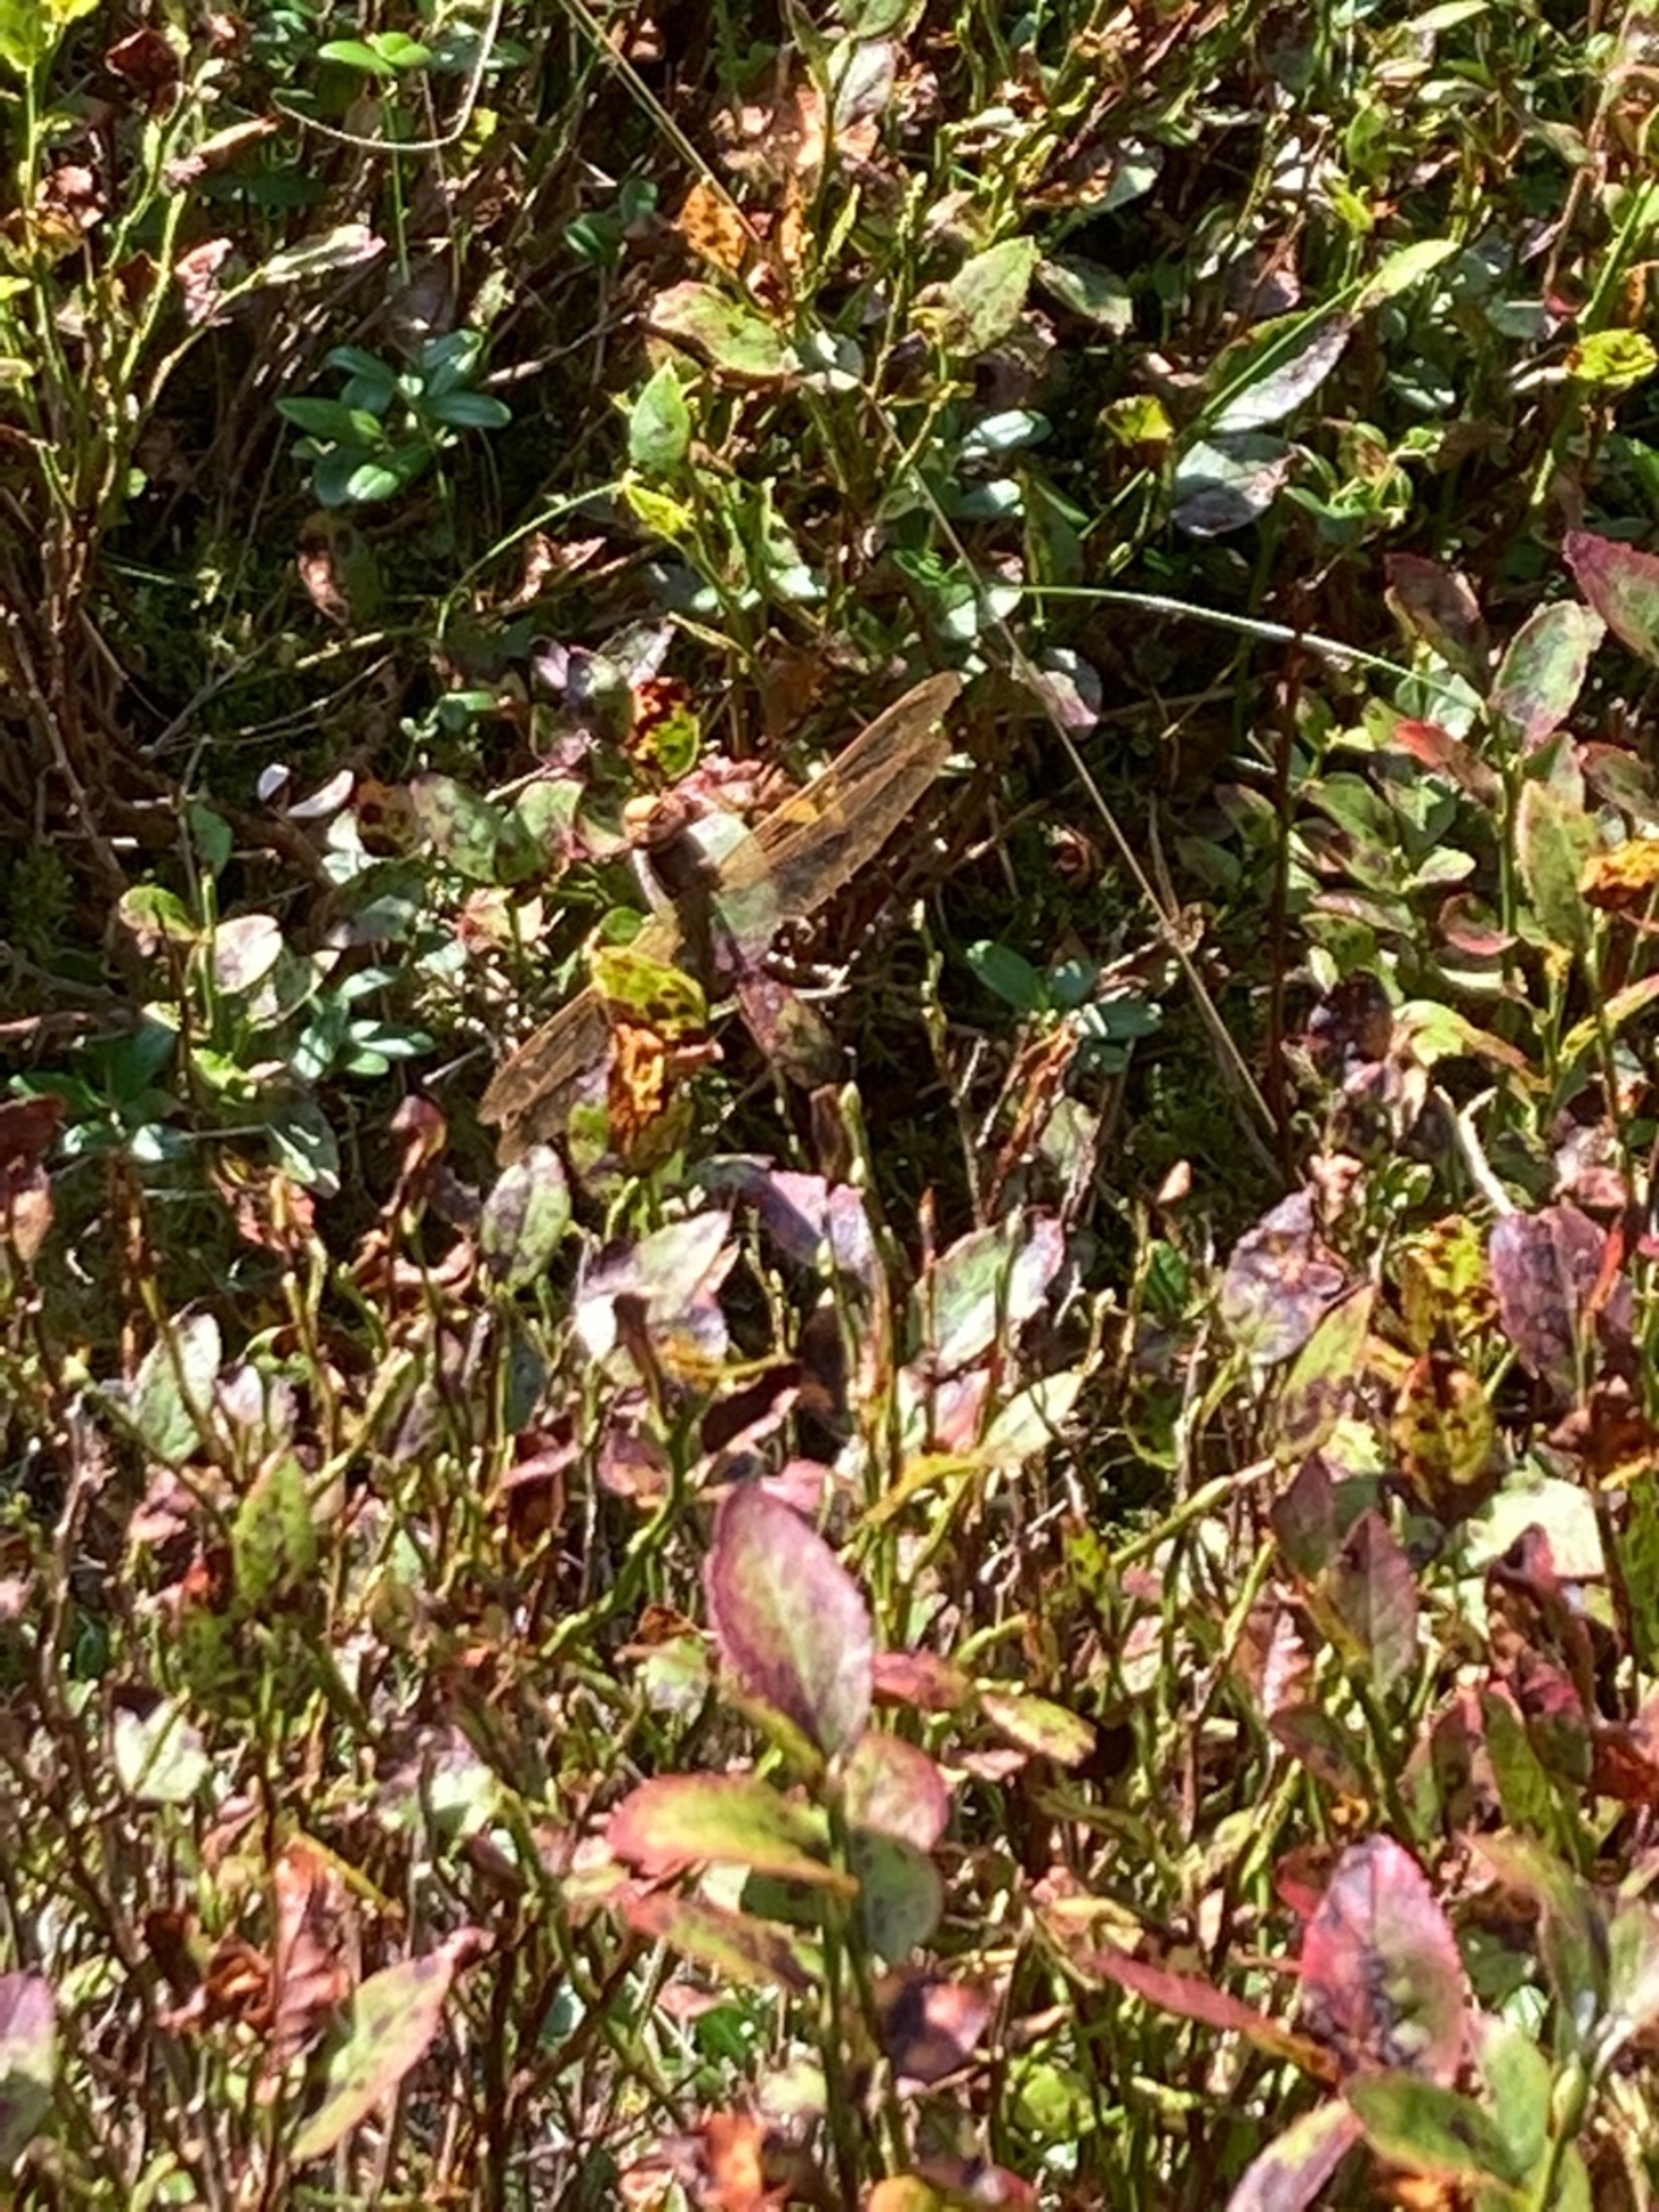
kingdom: Animalia
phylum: Arthropoda
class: Insecta
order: Odonata
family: Aeshnidae
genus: Aeshna
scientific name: Aeshna grandis
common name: Brun mosaikguldsmed
